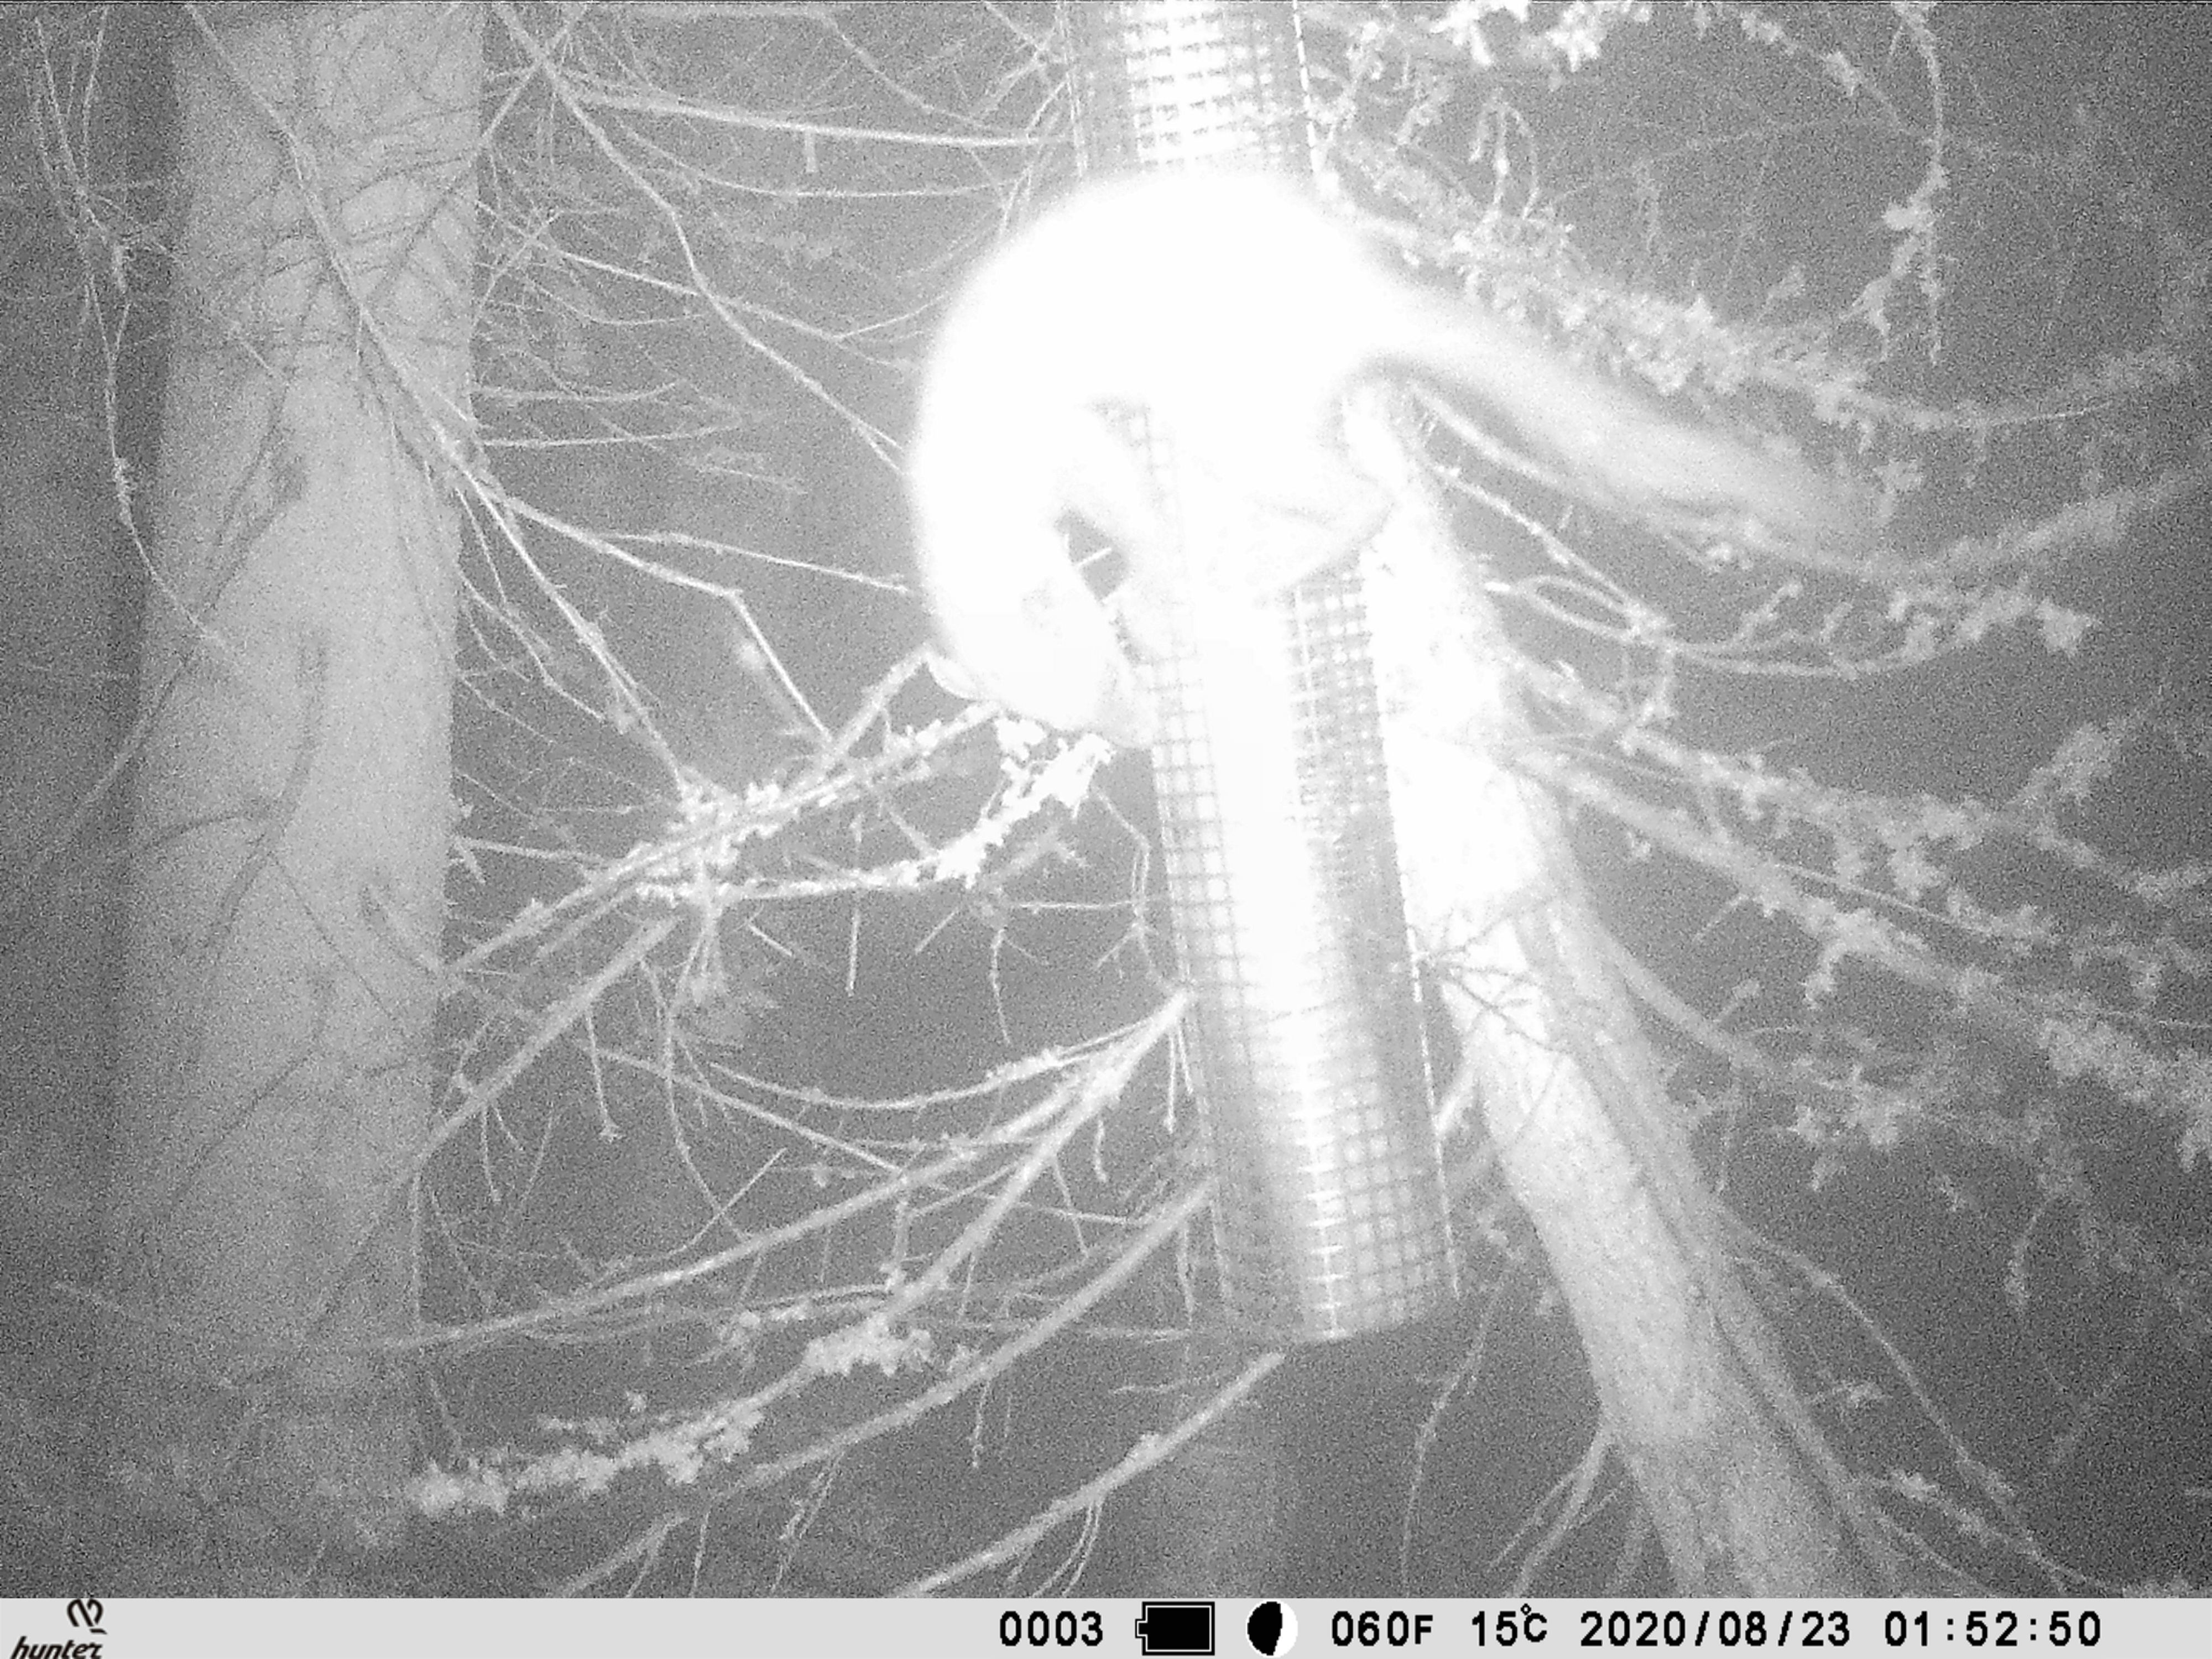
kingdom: Animalia
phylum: Chordata
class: Mammalia
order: Carnivora
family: Mustelidae
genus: Martes
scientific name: Martes martes
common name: European pine marten
